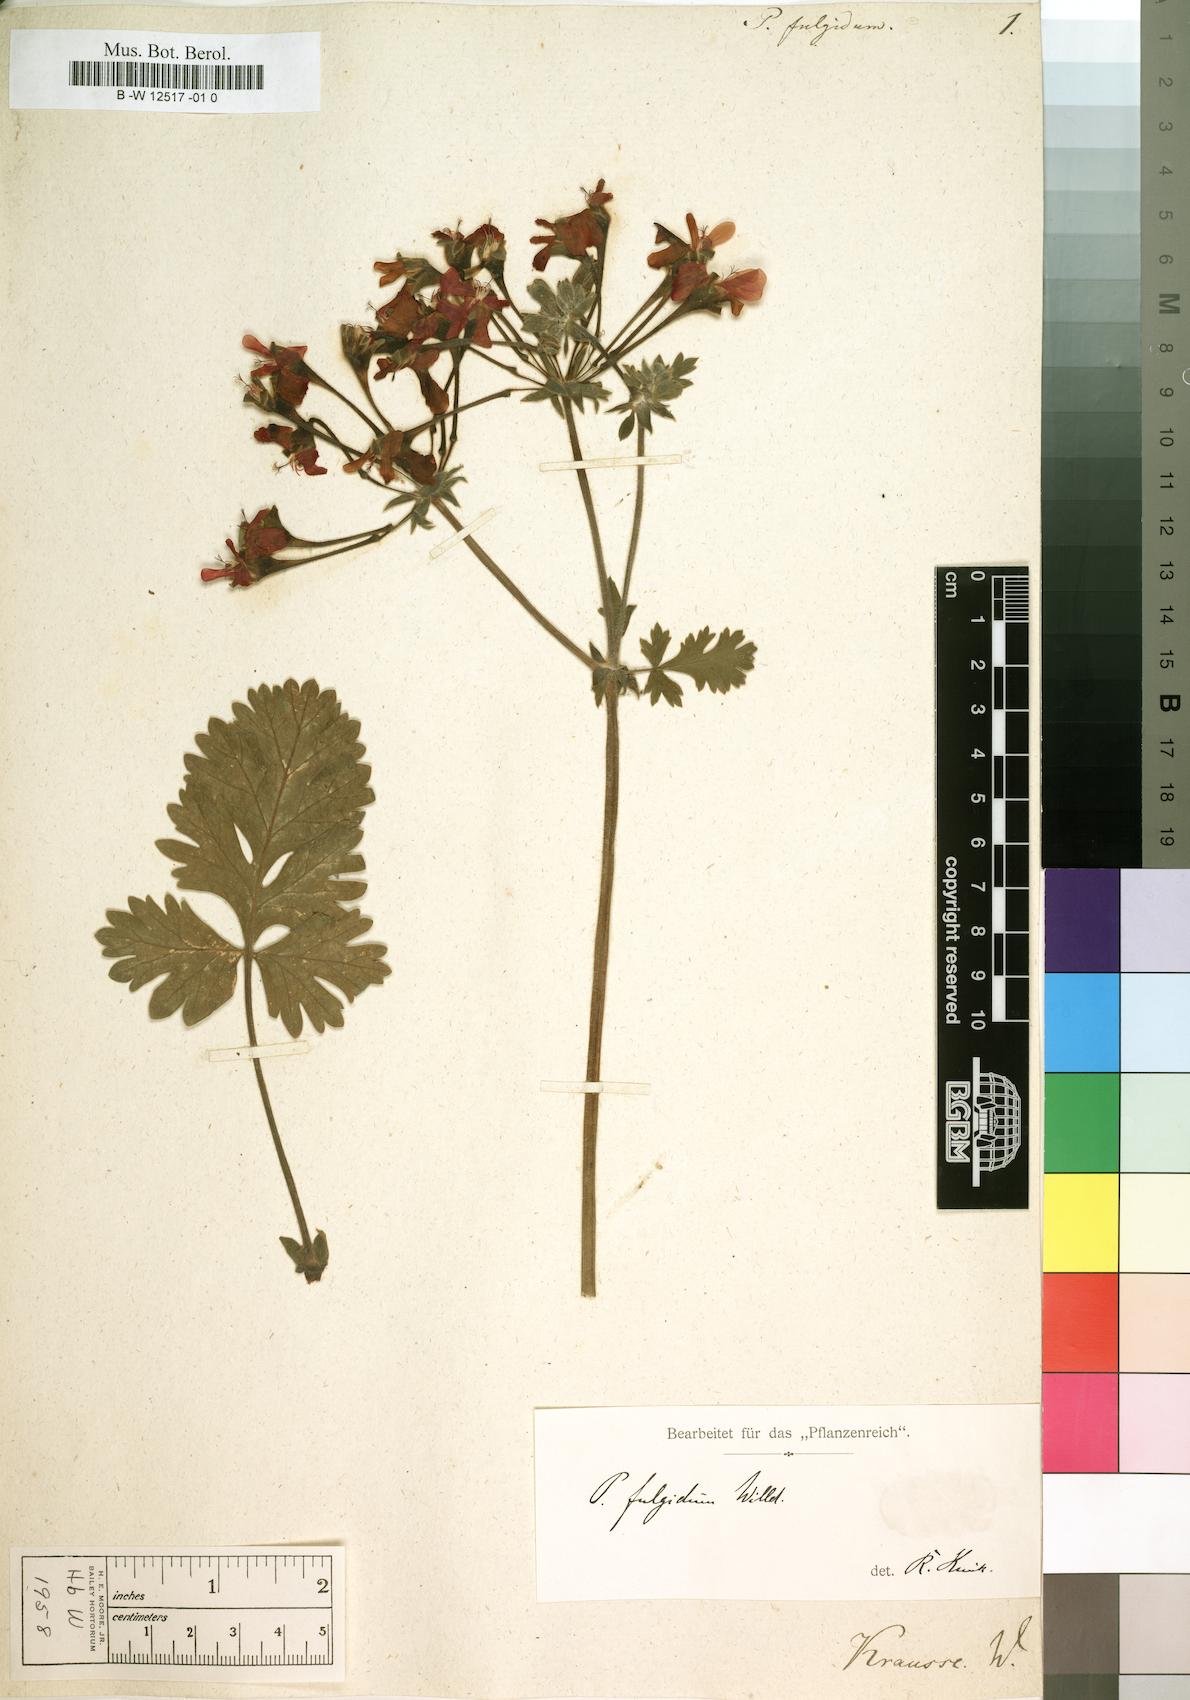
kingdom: Plantae
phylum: Tracheophyta
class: Magnoliopsida
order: Geraniales
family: Geraniaceae
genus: Pelargonium
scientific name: Pelargonium fulgidum
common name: Celandine-leaf pelargonium
